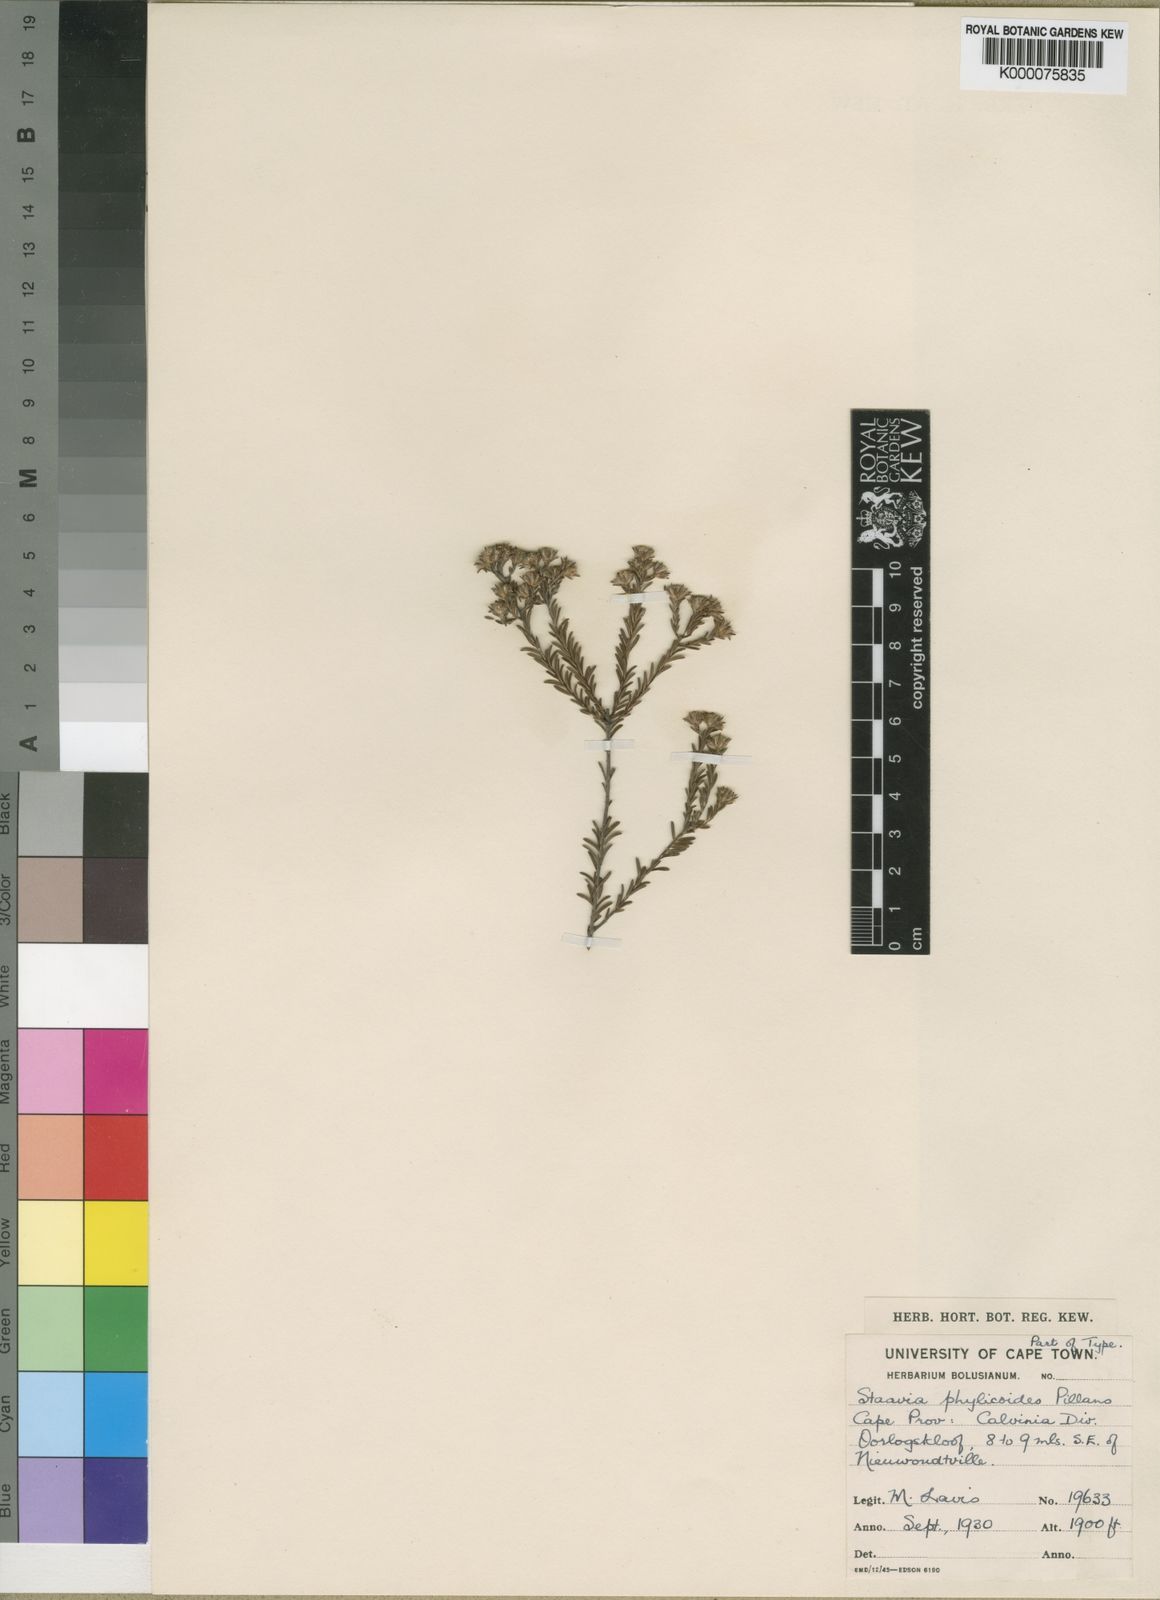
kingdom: Plantae
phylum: Tracheophyta
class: Magnoliopsida
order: Bruniales
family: Bruniaceae
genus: Staavia
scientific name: Staavia phylicoides
